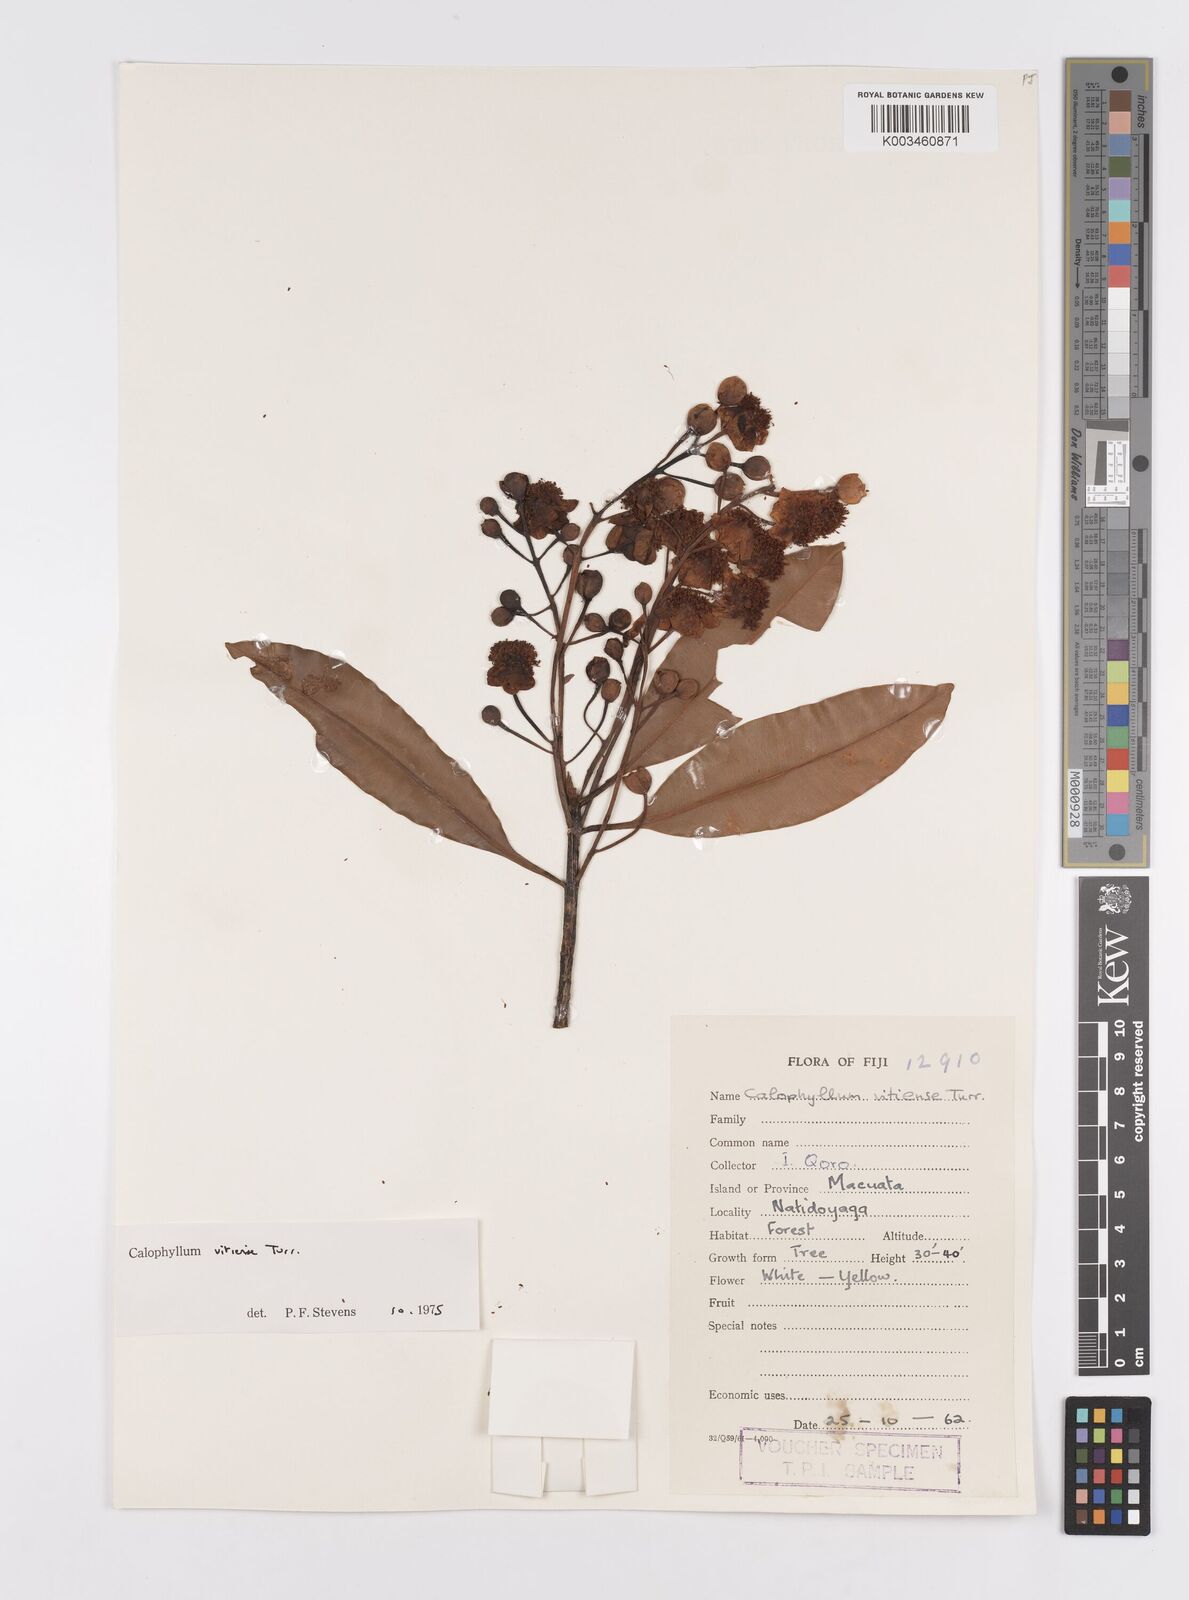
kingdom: Plantae
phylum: Tracheophyta
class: Magnoliopsida
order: Malpighiales
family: Calophyllaceae
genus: Calophyllum
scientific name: Calophyllum vitiense
